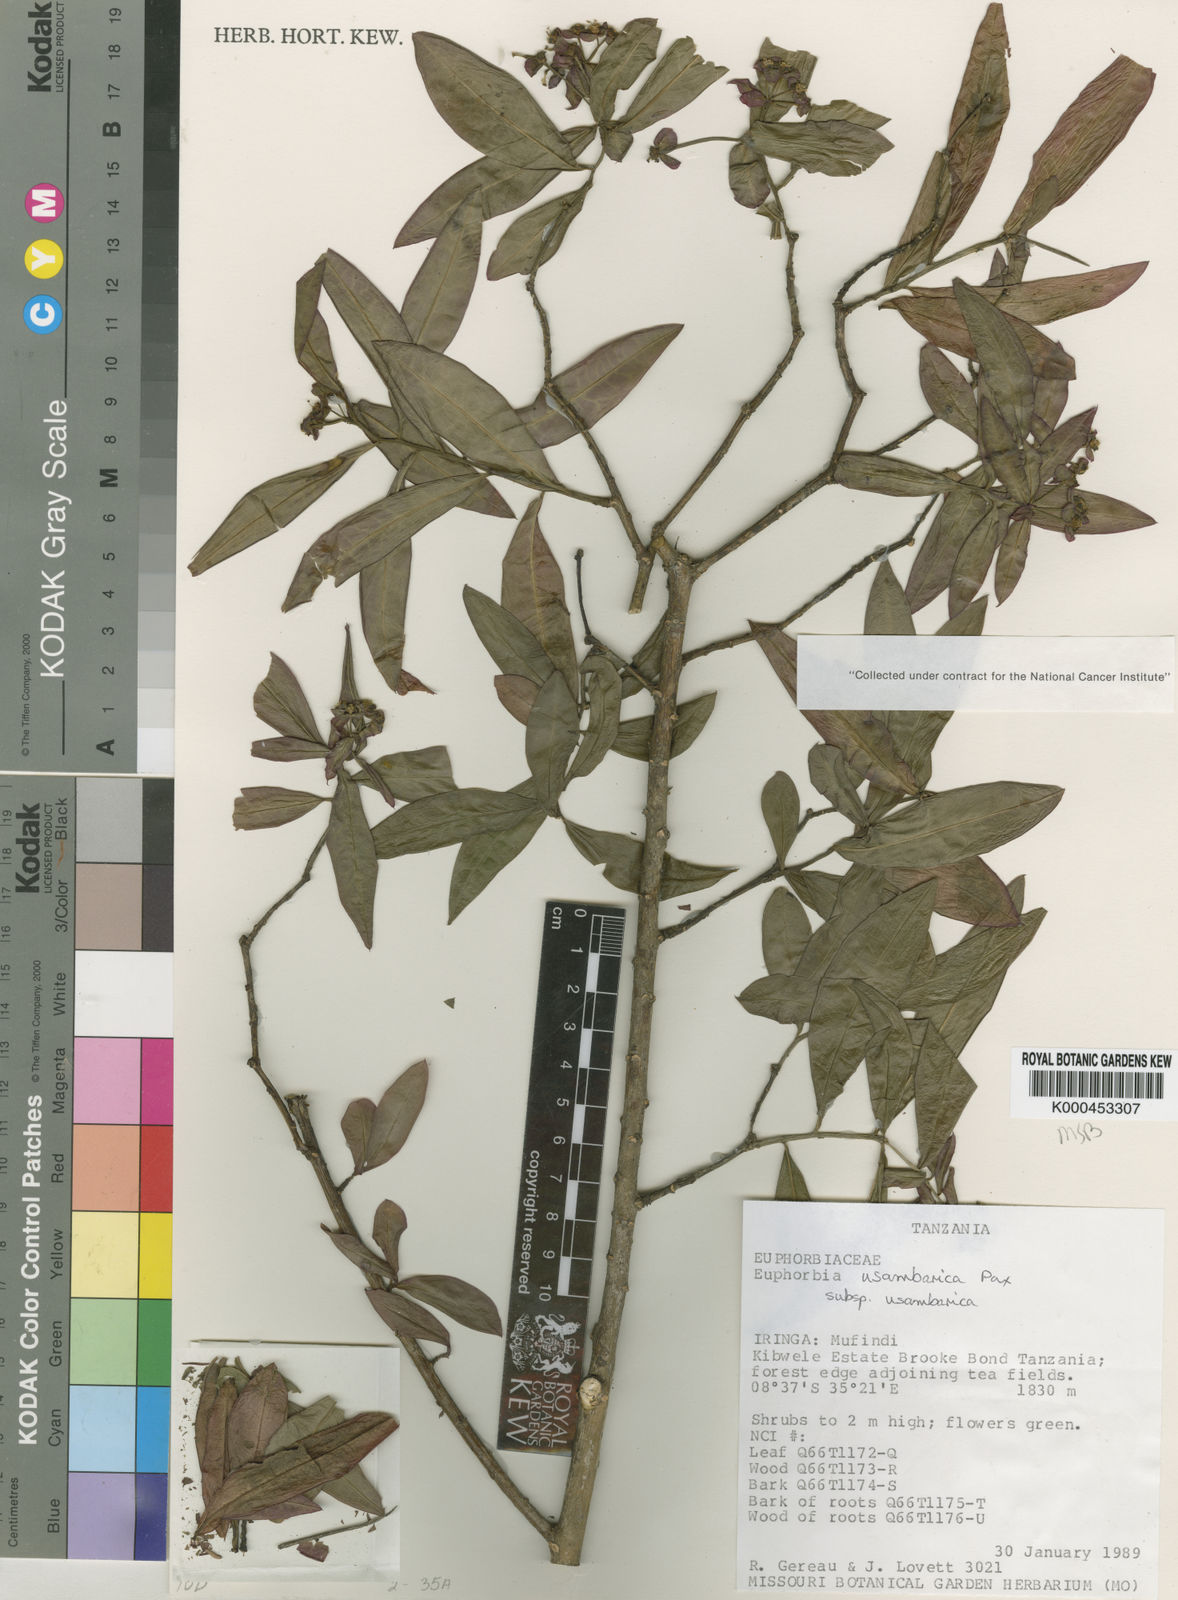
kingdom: Plantae
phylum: Tracheophyta
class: Magnoliopsida
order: Malpighiales
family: Euphorbiaceae
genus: Euphorbia
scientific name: Euphorbia usambarica
